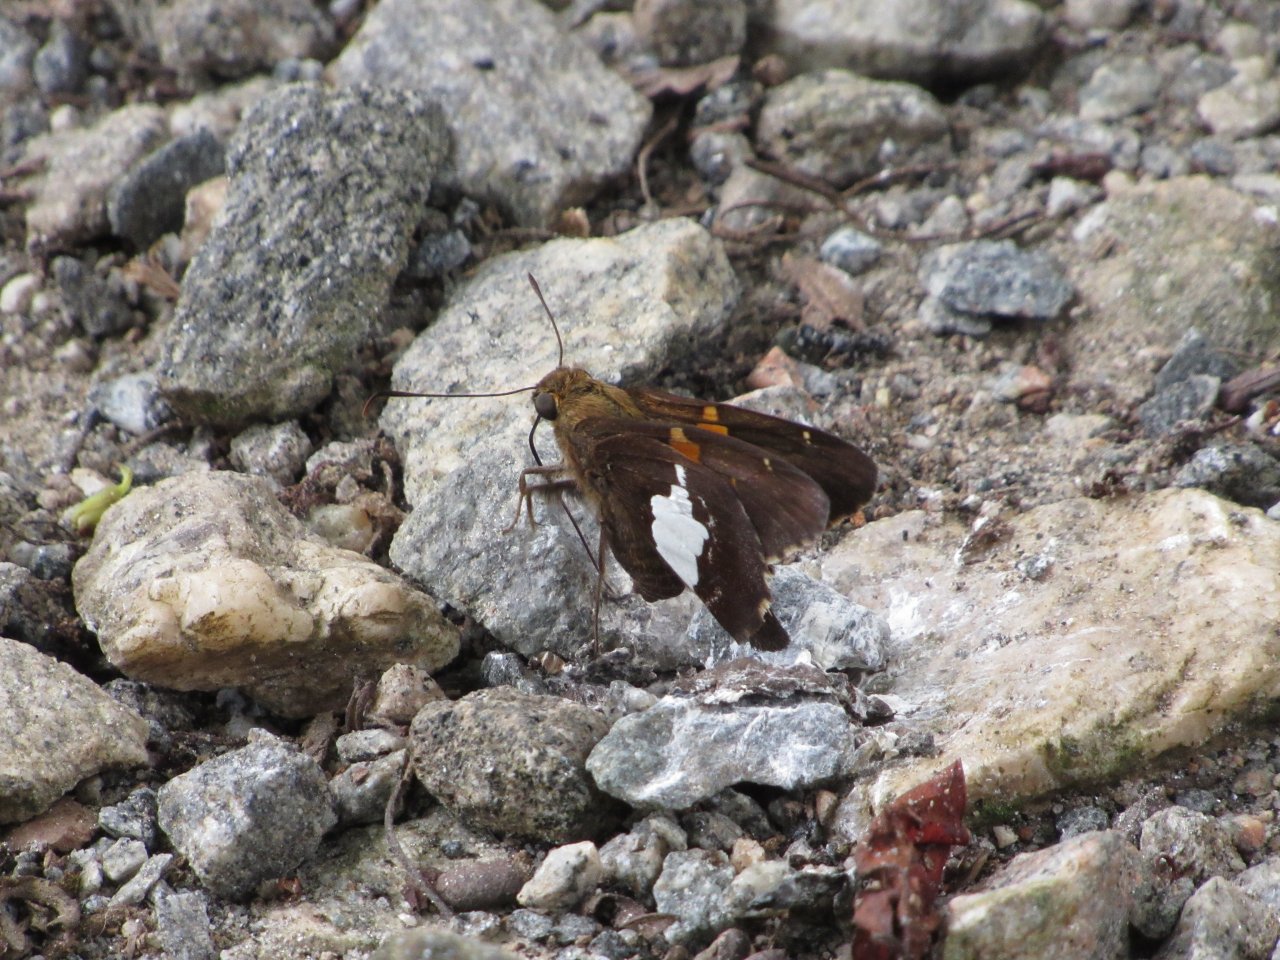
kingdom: Animalia
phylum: Arthropoda
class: Insecta
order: Lepidoptera
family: Hesperiidae
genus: Epargyreus
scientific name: Epargyreus clarus
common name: Silver-spotted Skipper
